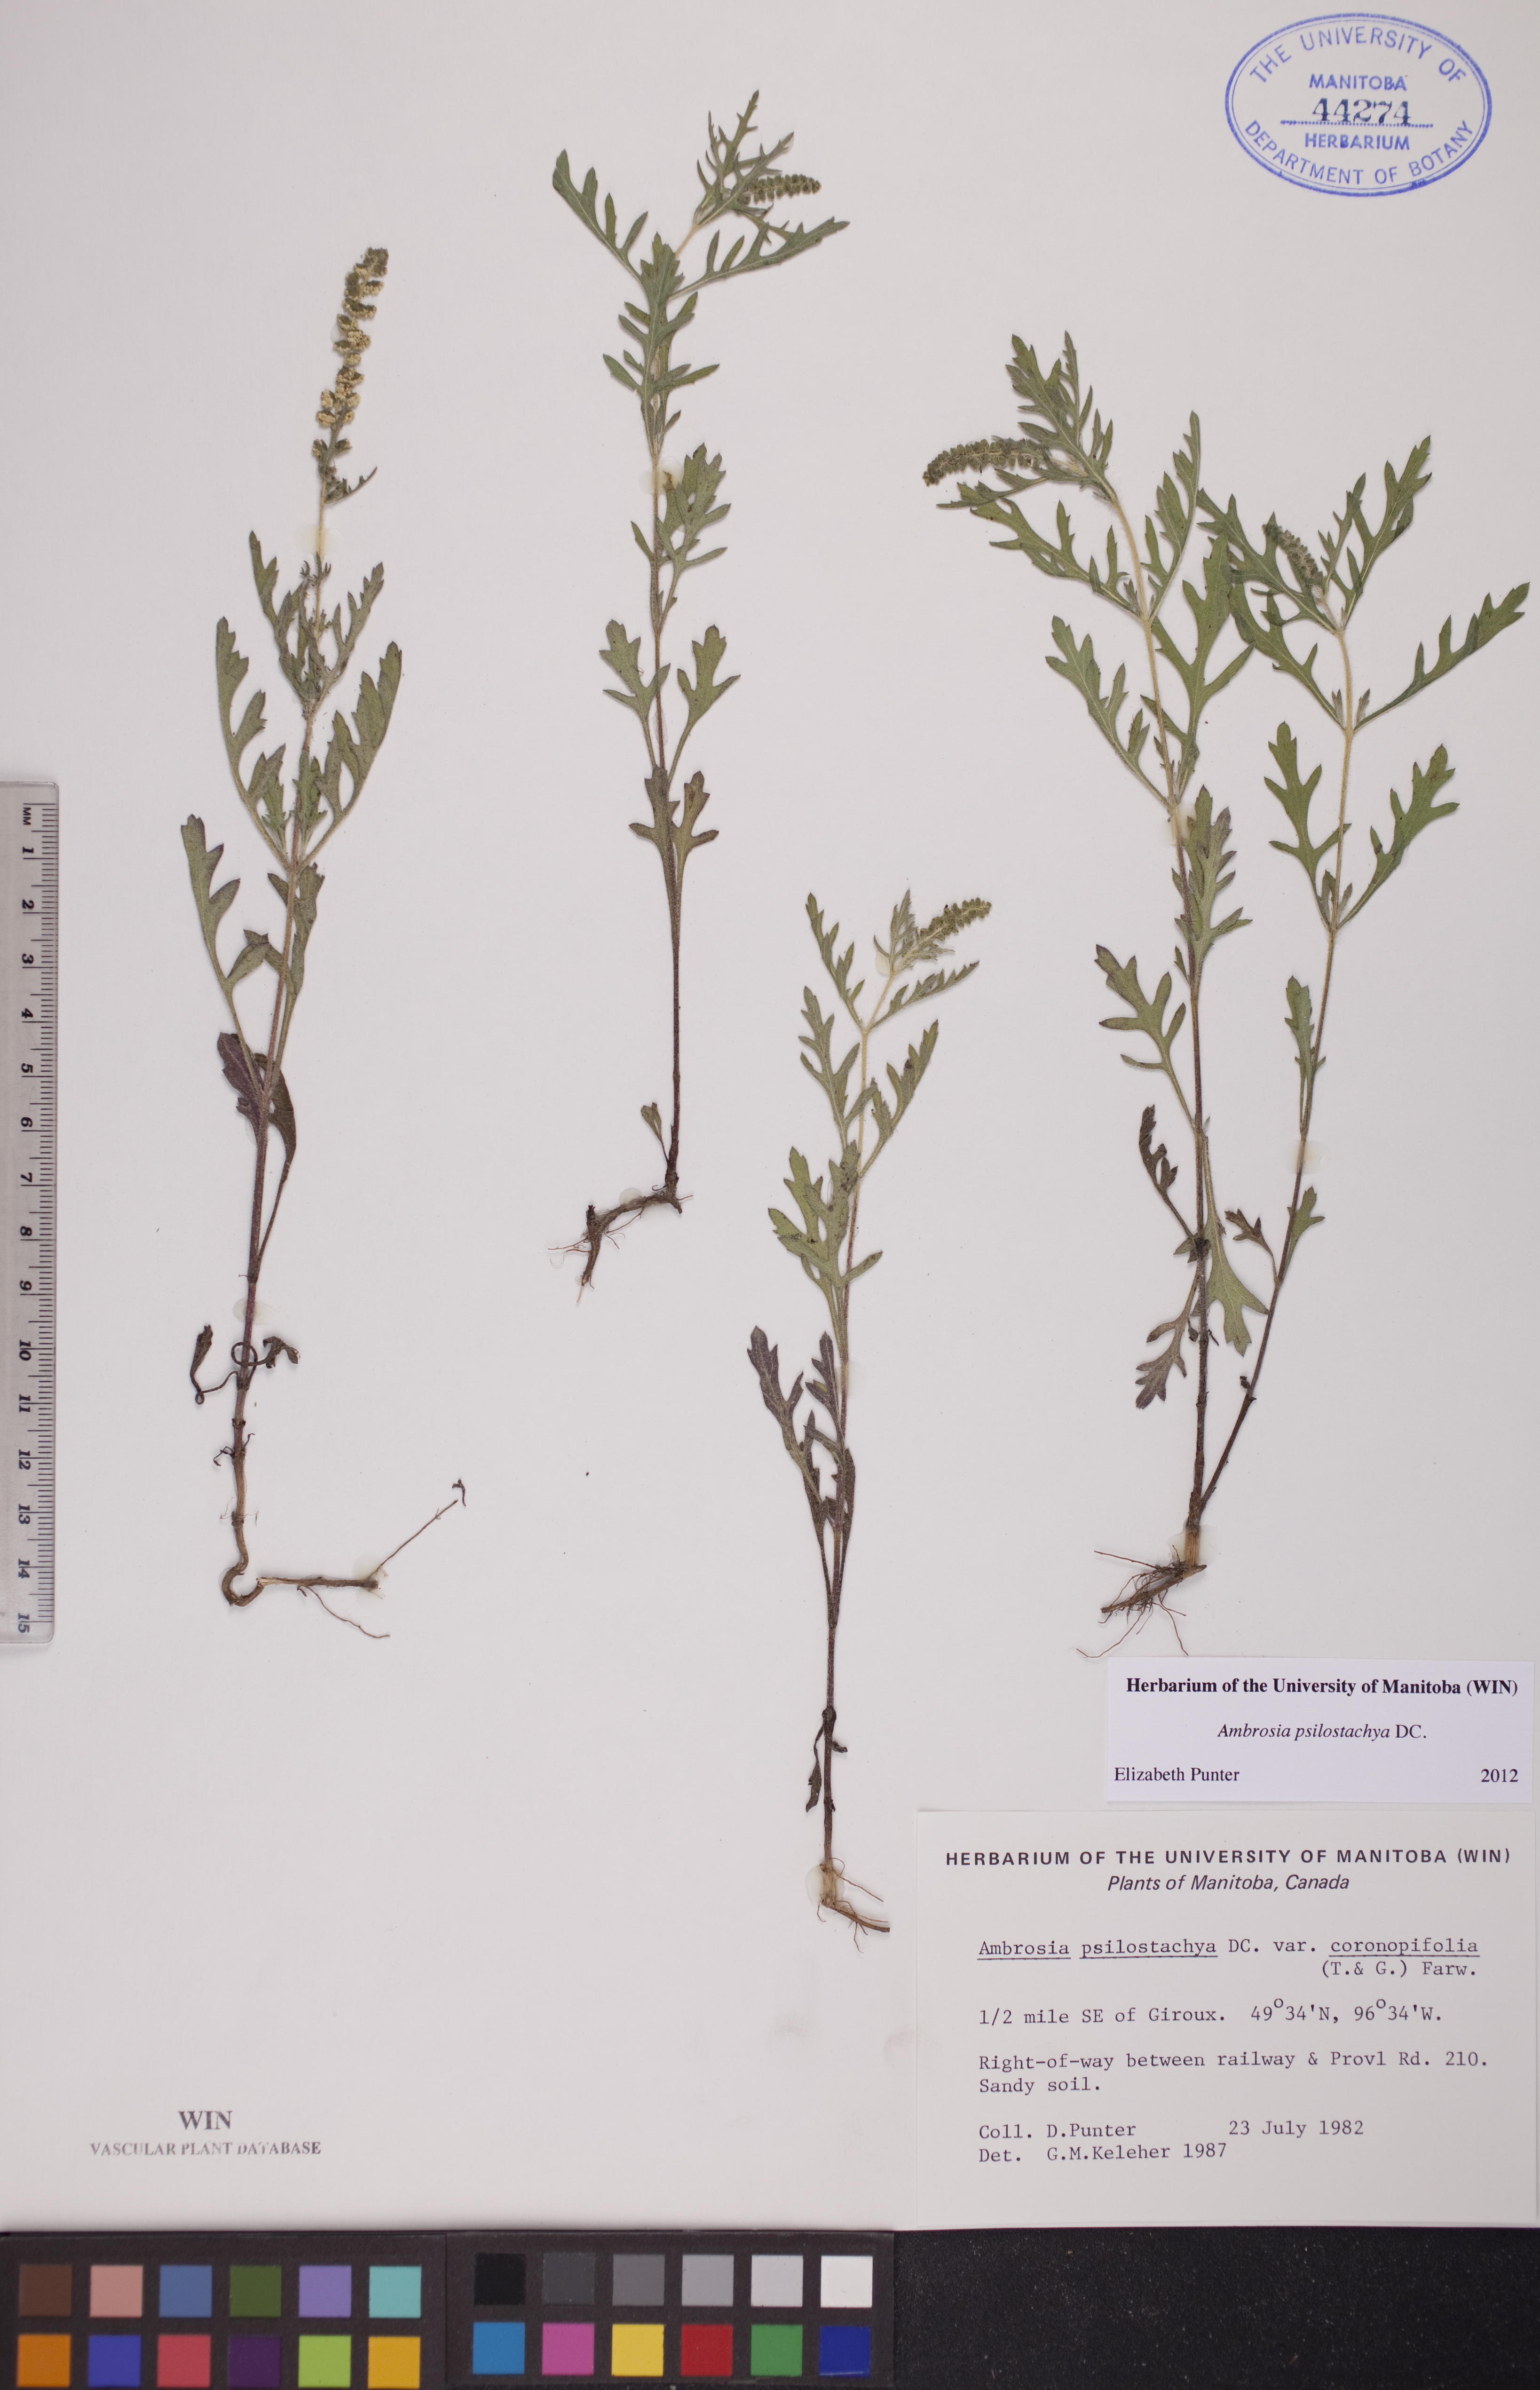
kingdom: Plantae
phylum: Tracheophyta
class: Magnoliopsida
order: Asterales
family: Asteraceae
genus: Ambrosia
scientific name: Ambrosia psilostachya
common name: Perennial ragweed
